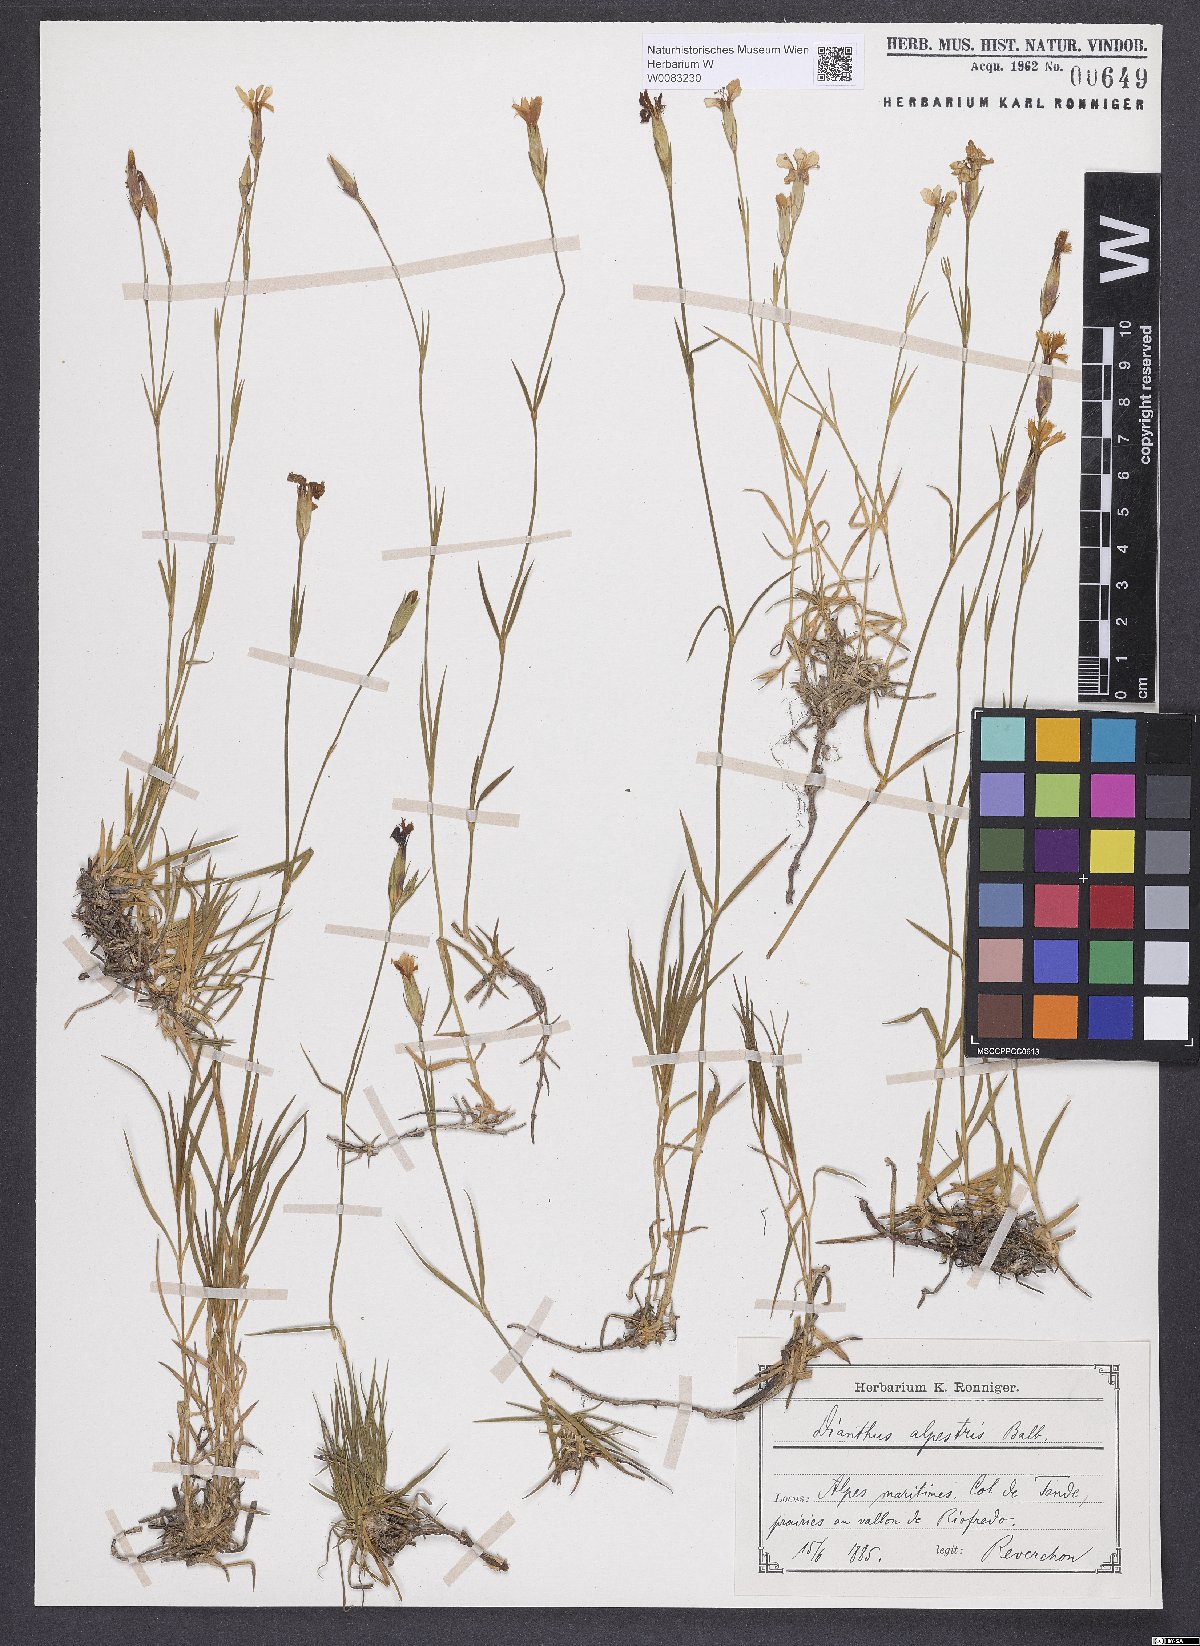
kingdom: Plantae
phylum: Tracheophyta
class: Magnoliopsida
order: Caryophyllales
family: Caryophyllaceae
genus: Dianthus
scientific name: Dianthus furcatus
